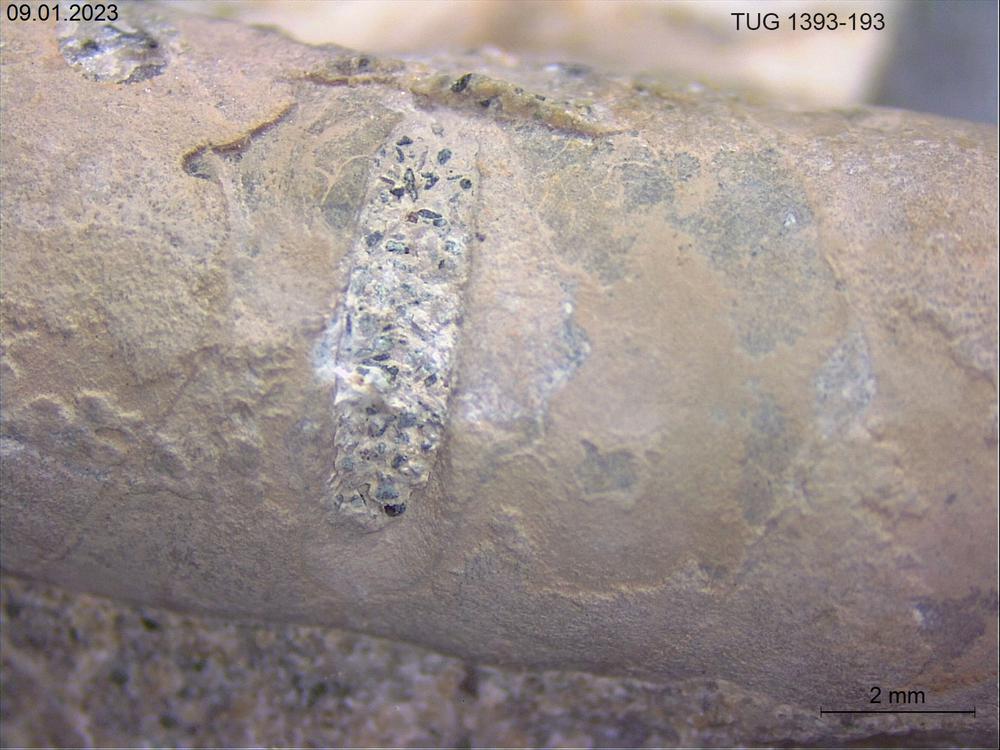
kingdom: Animalia
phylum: Mollusca
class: Cephalopoda
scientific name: Cephalopoda
